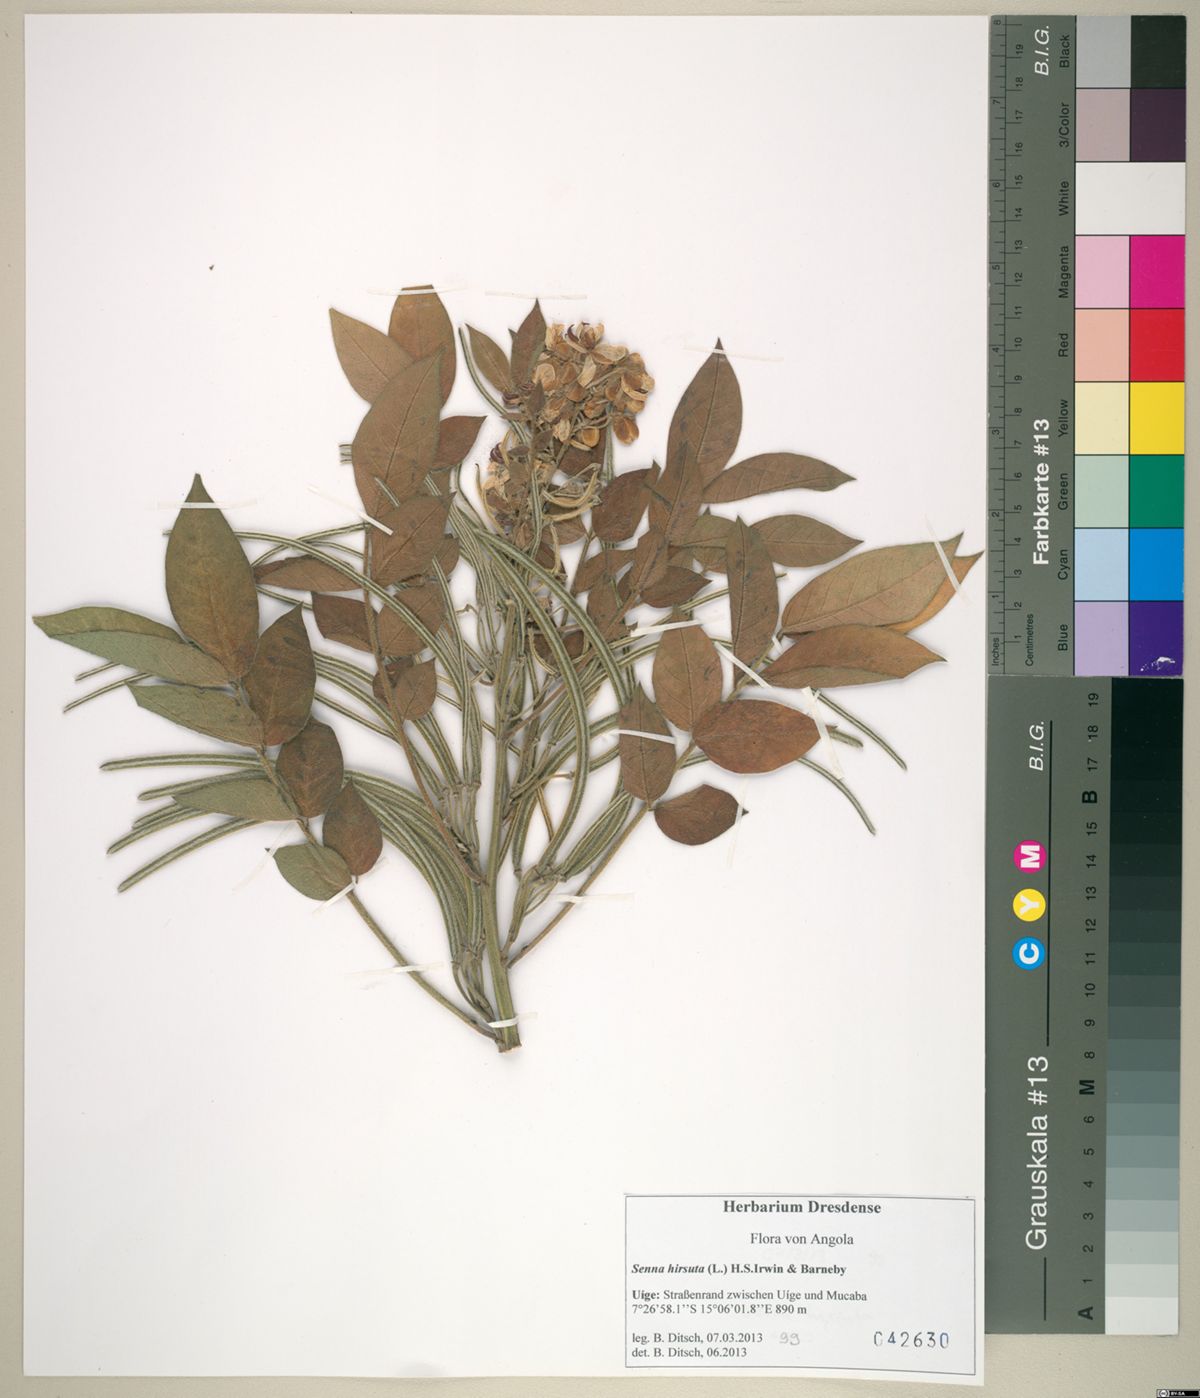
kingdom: Plantae
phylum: Tracheophyta
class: Magnoliopsida
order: Fabales
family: Fabaceae
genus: Senna
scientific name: Senna hirsuta
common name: Woolly senna
